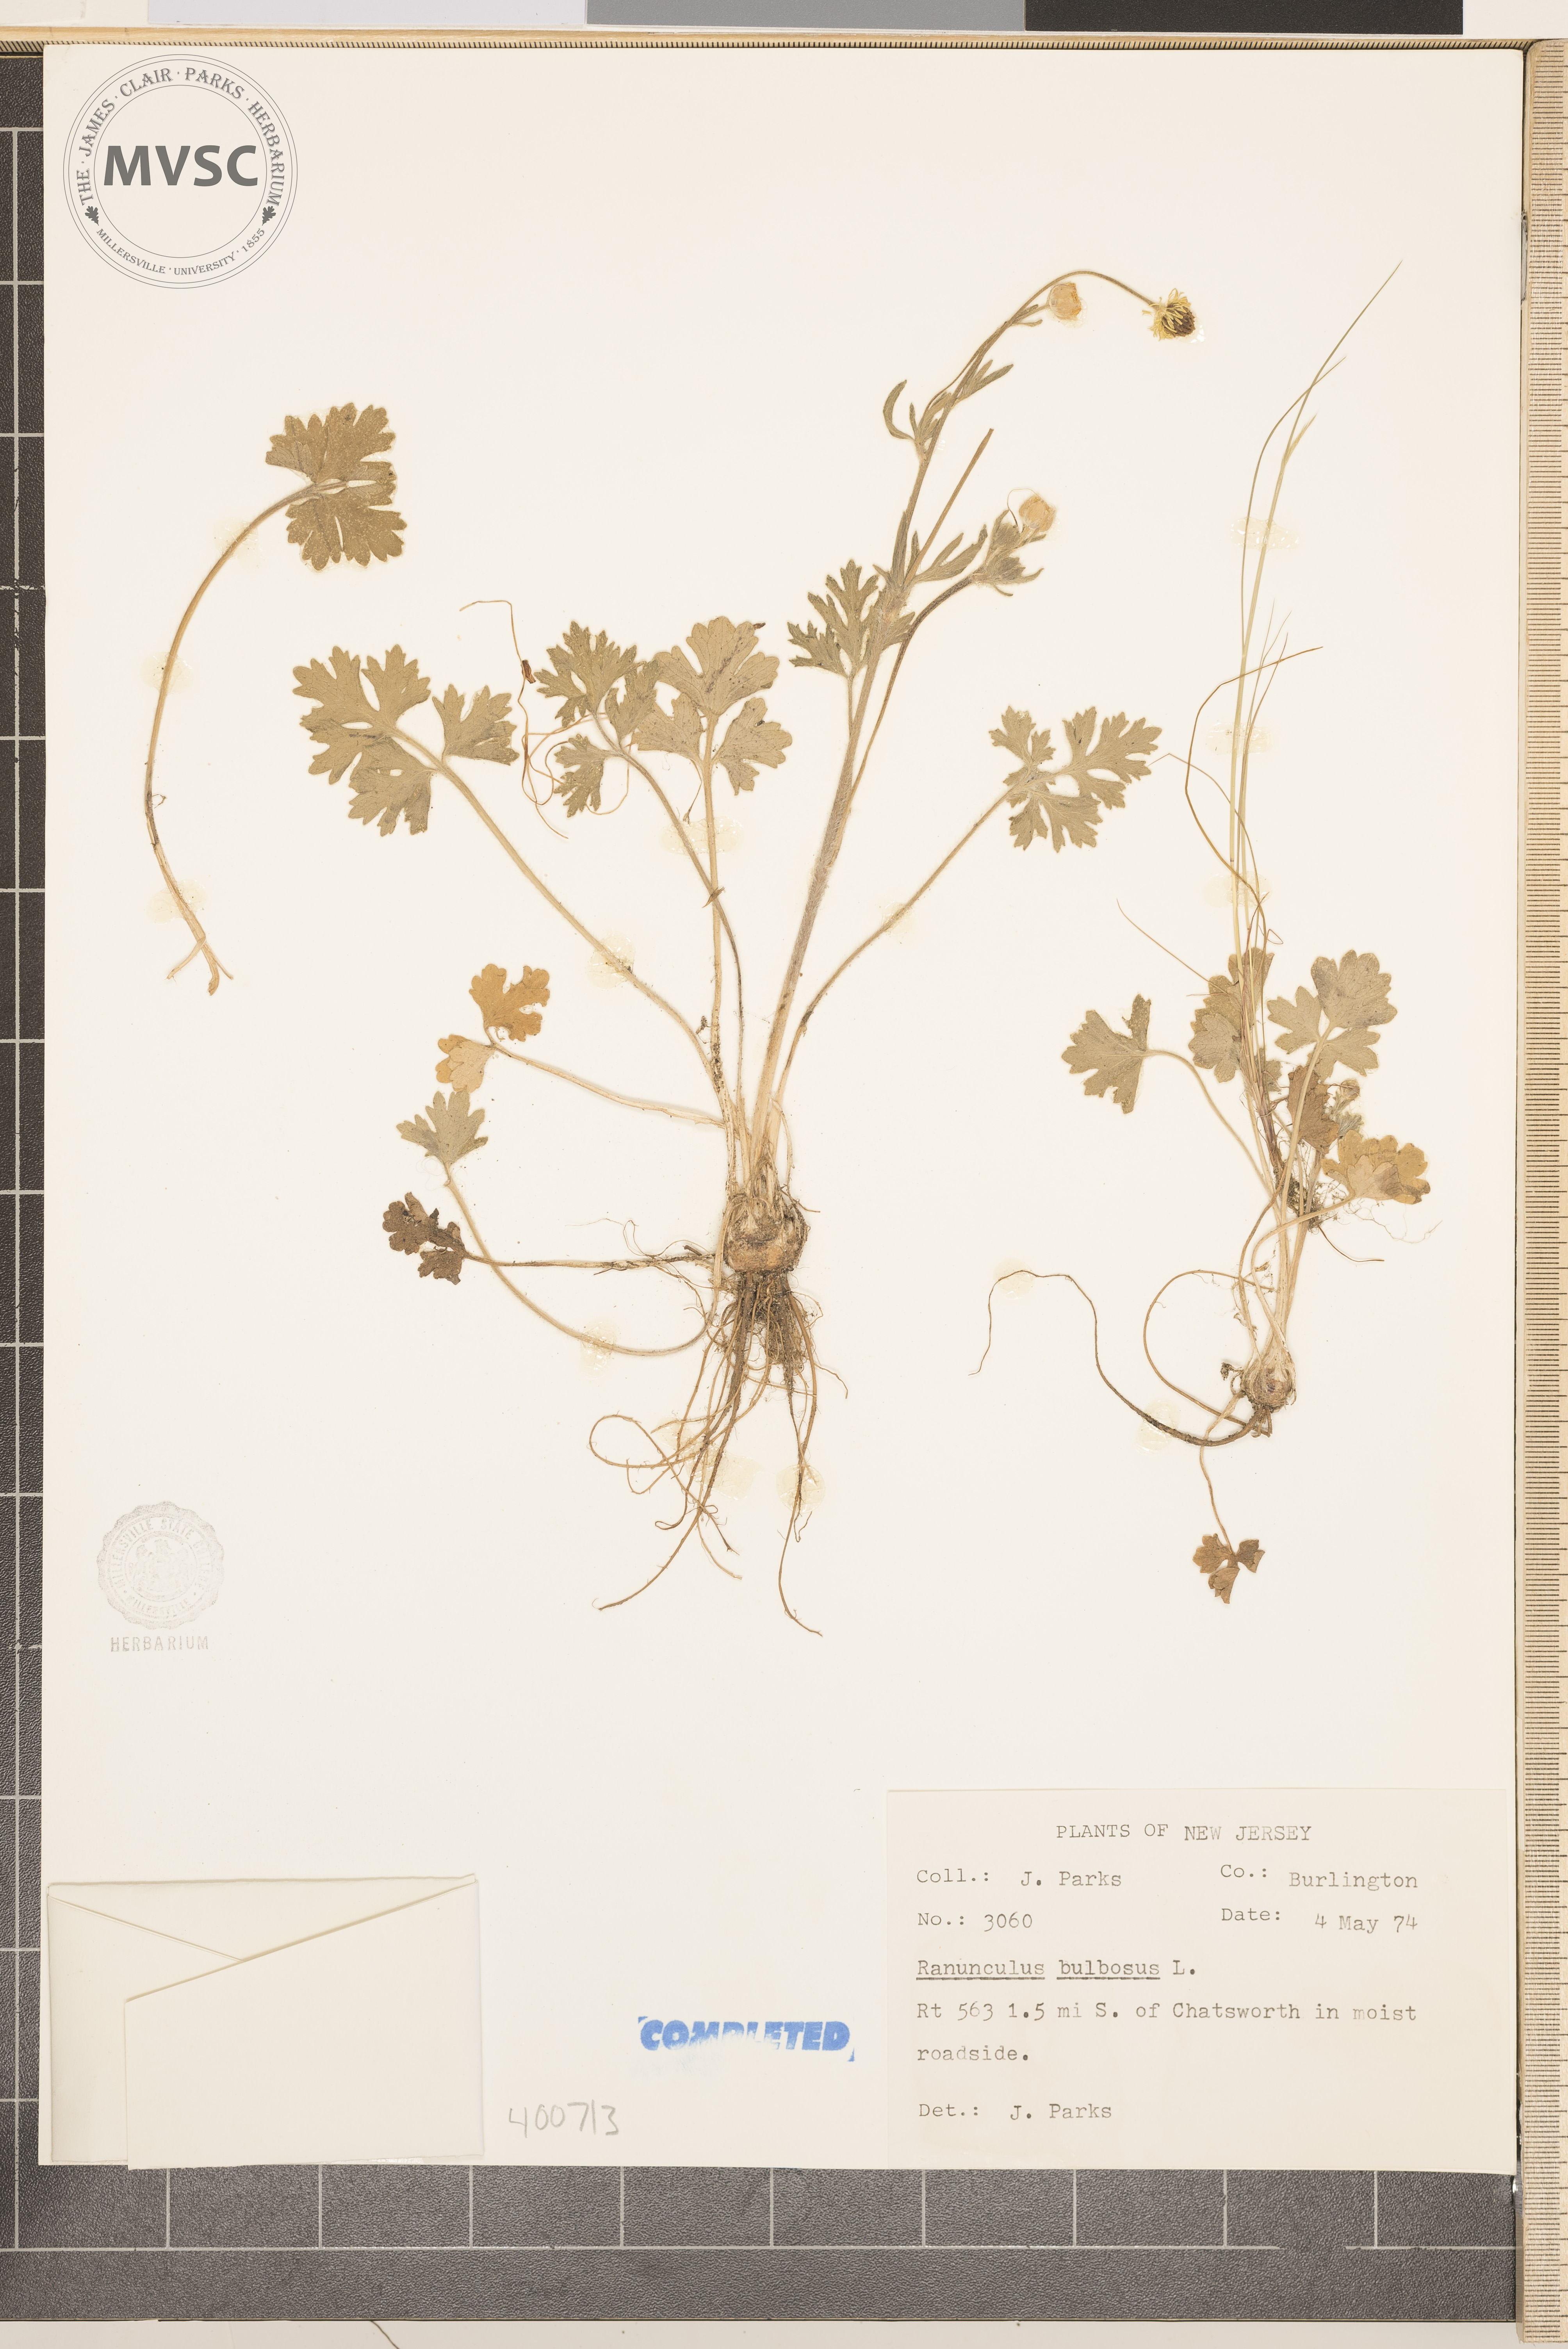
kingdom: Plantae
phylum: Tracheophyta
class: Magnoliopsida
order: Ranunculales
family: Ranunculaceae
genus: Ranunculus
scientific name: Ranunculus bulbosus
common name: buttercup
